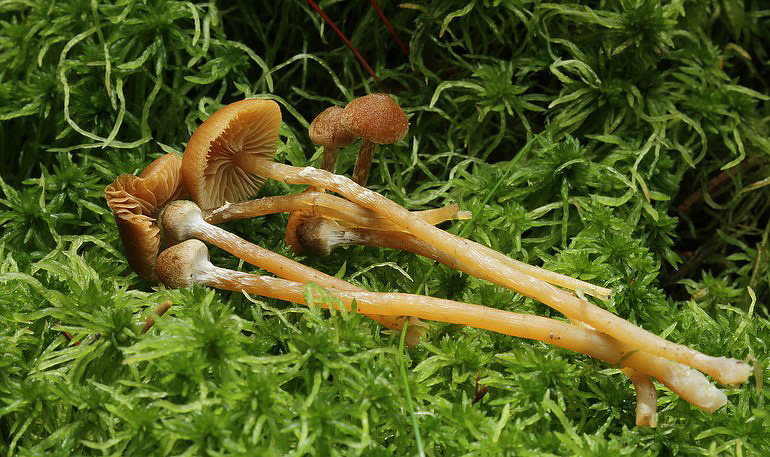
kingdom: Fungi
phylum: Basidiomycota
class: Agaricomycetes
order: Agaricales
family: Hymenogastraceae
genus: Galerina
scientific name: Galerina paludosa
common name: mose-hjelmhat
